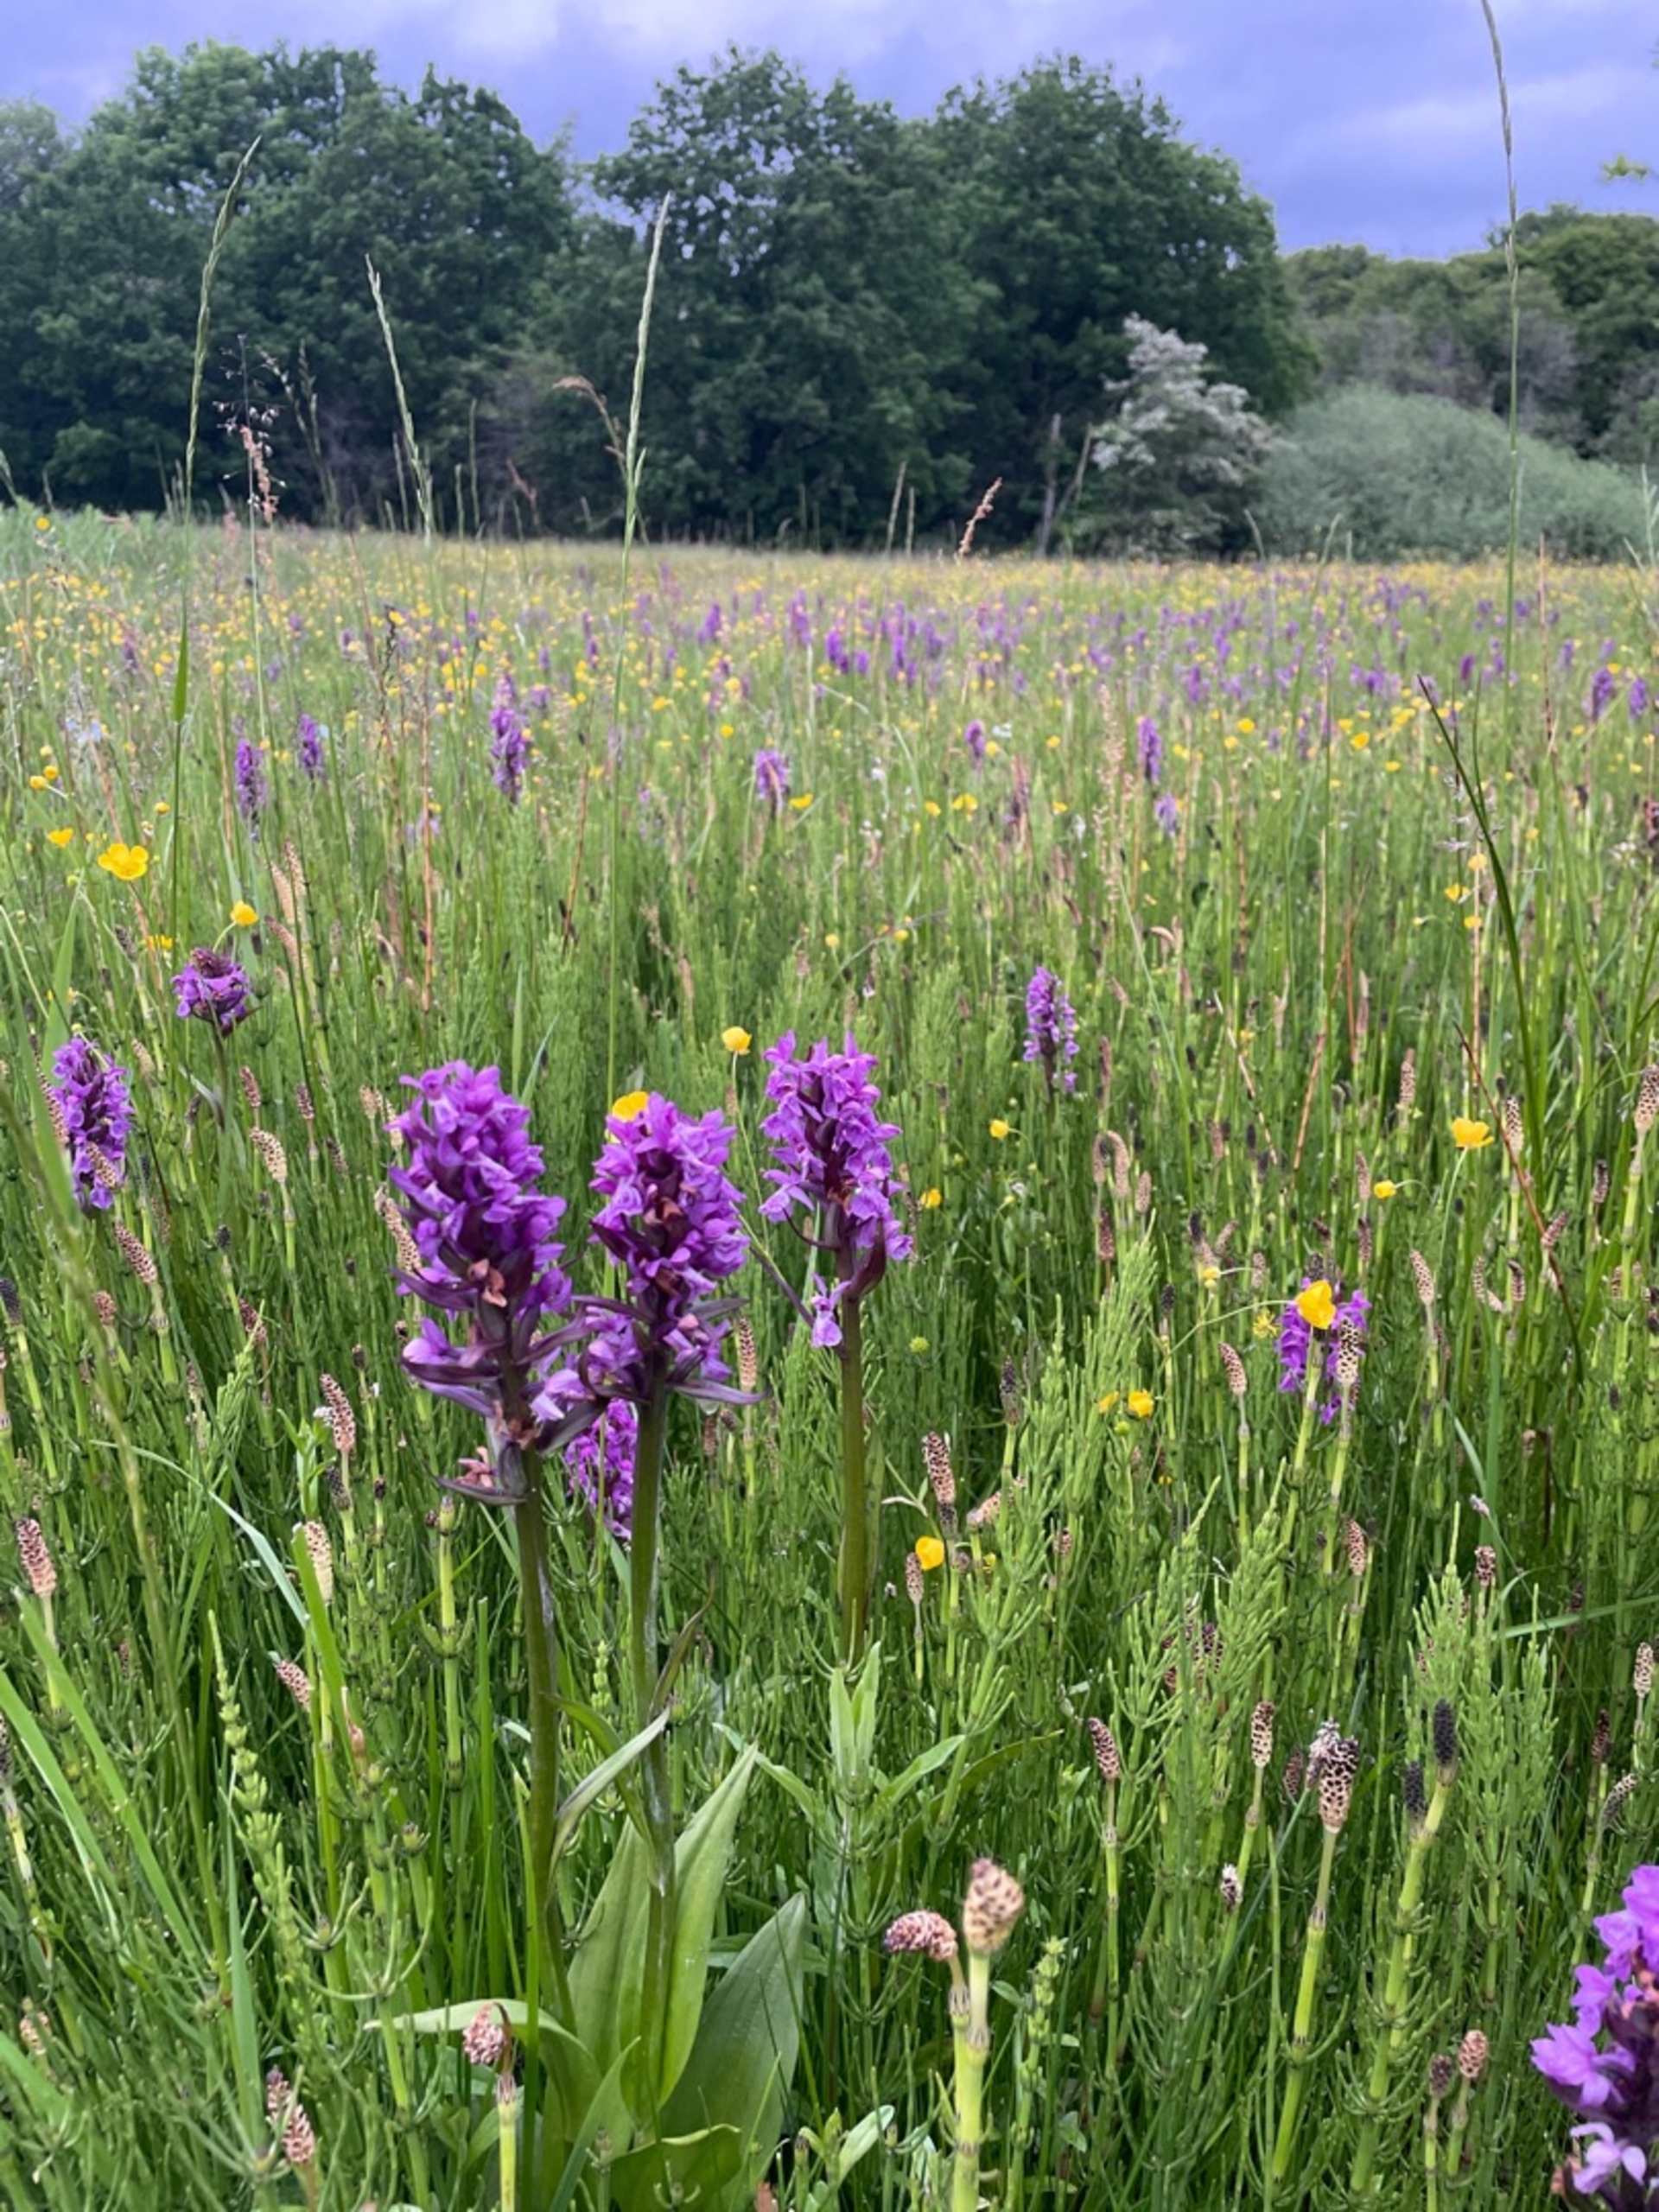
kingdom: Plantae
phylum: Tracheophyta
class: Liliopsida
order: Asparagales
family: Orchidaceae
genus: Dactylorhiza
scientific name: Dactylorhiza majalis
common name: Maj-gøgeurt
